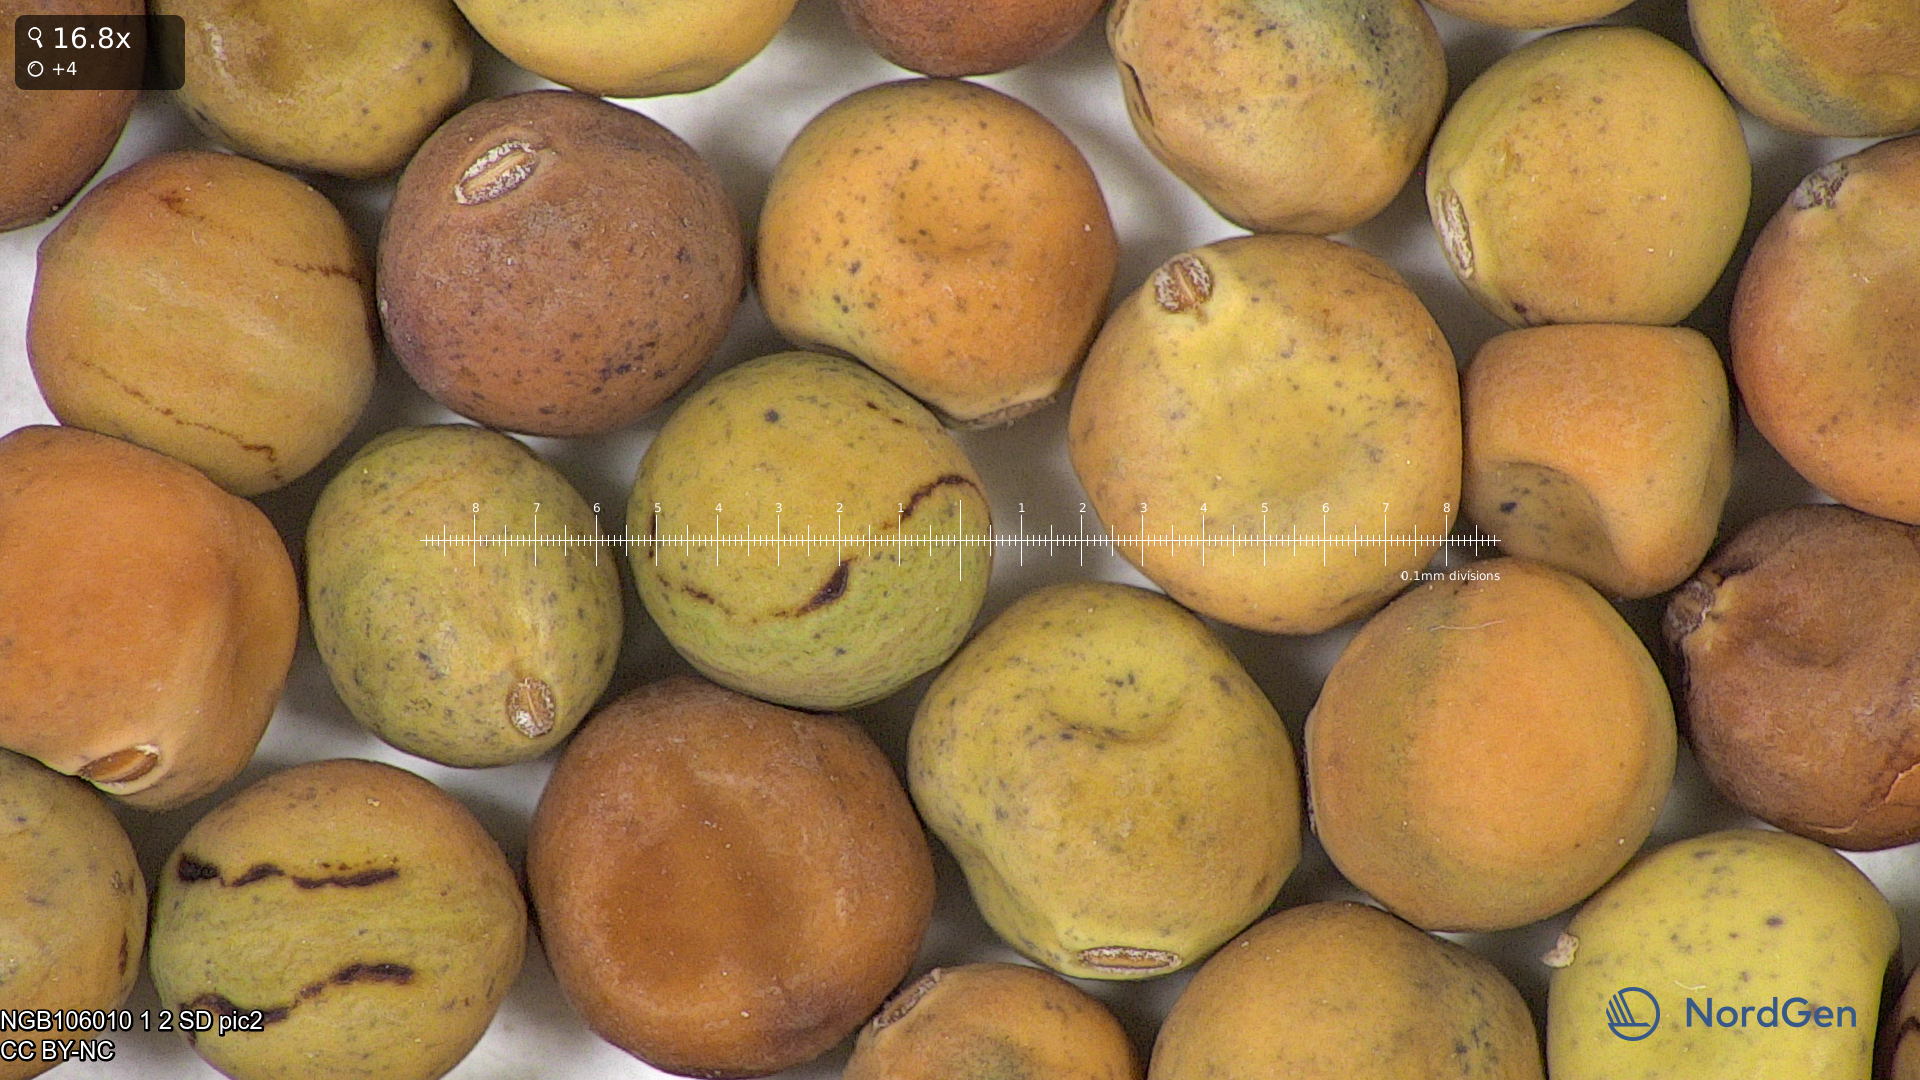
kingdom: Plantae
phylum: Tracheophyta
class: Magnoliopsida
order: Fabales
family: Fabaceae
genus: Lathyrus
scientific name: Lathyrus oleraceus
